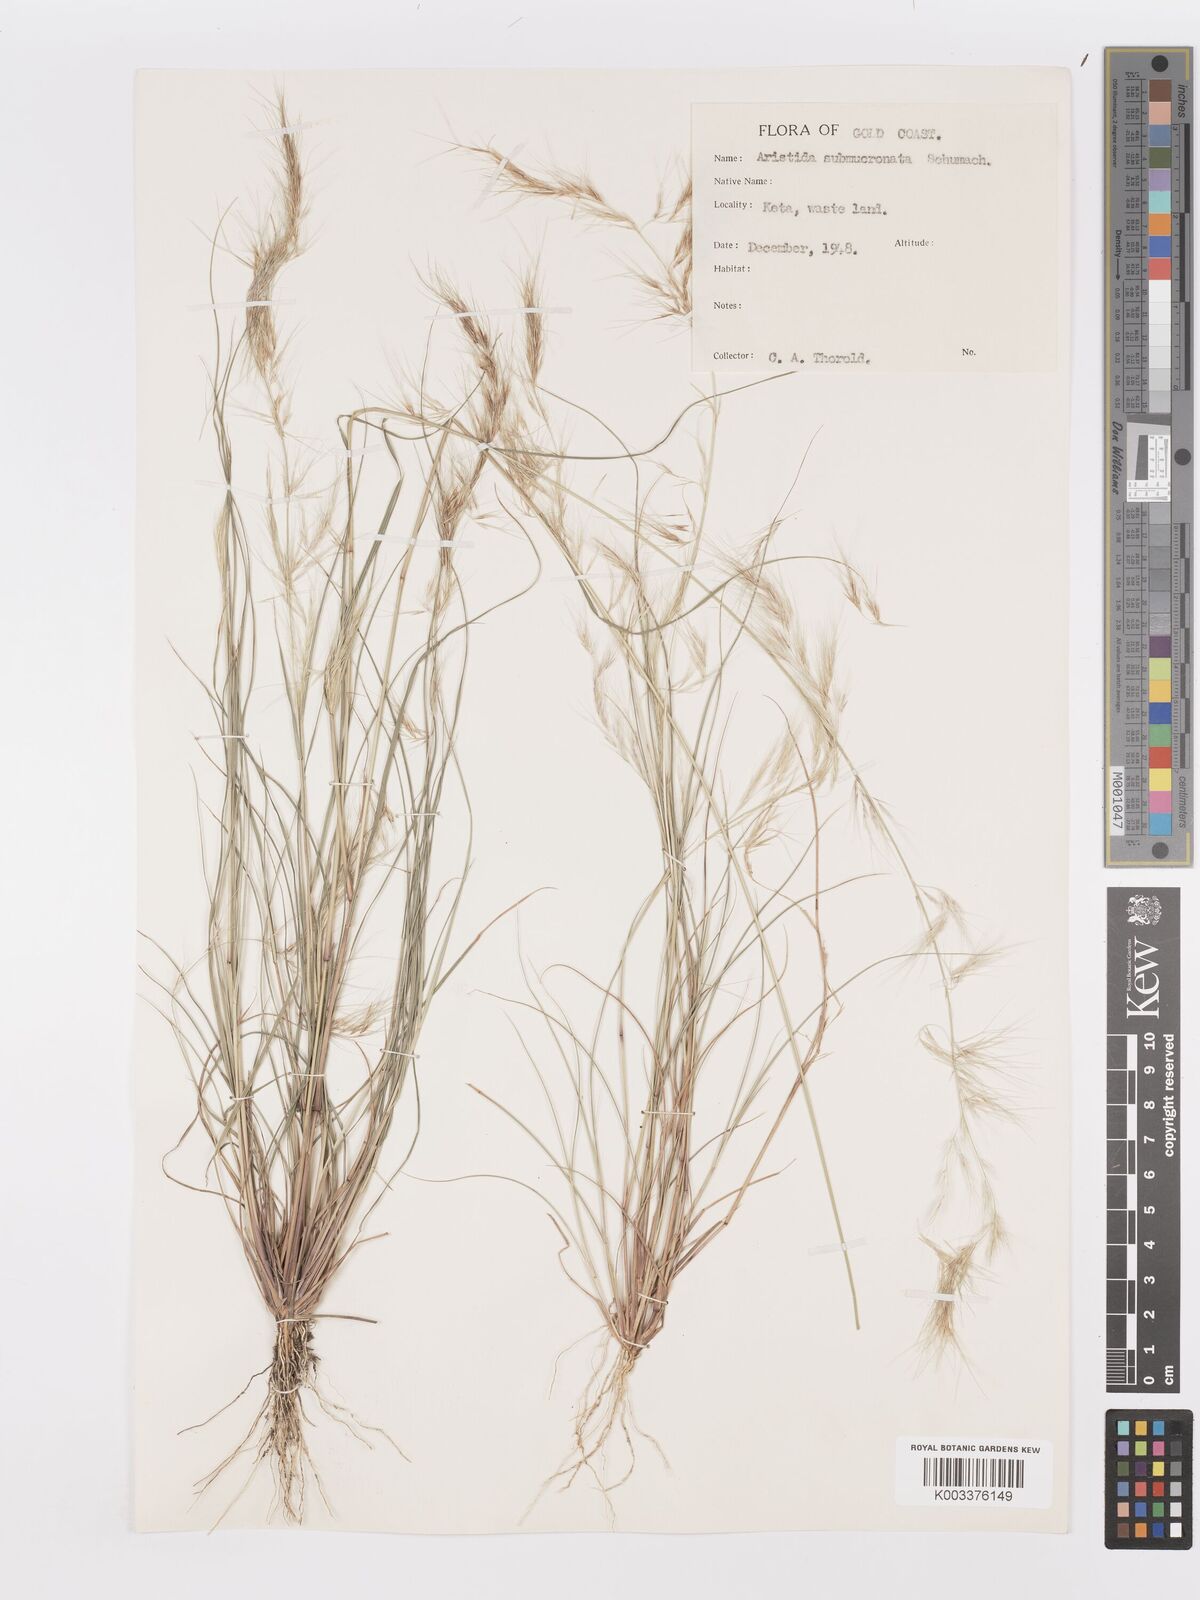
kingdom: Plantae
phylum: Tracheophyta
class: Liliopsida
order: Poales
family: Poaceae
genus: Aristida
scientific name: Aristida adscensionis
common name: Sixweeks threeawn
